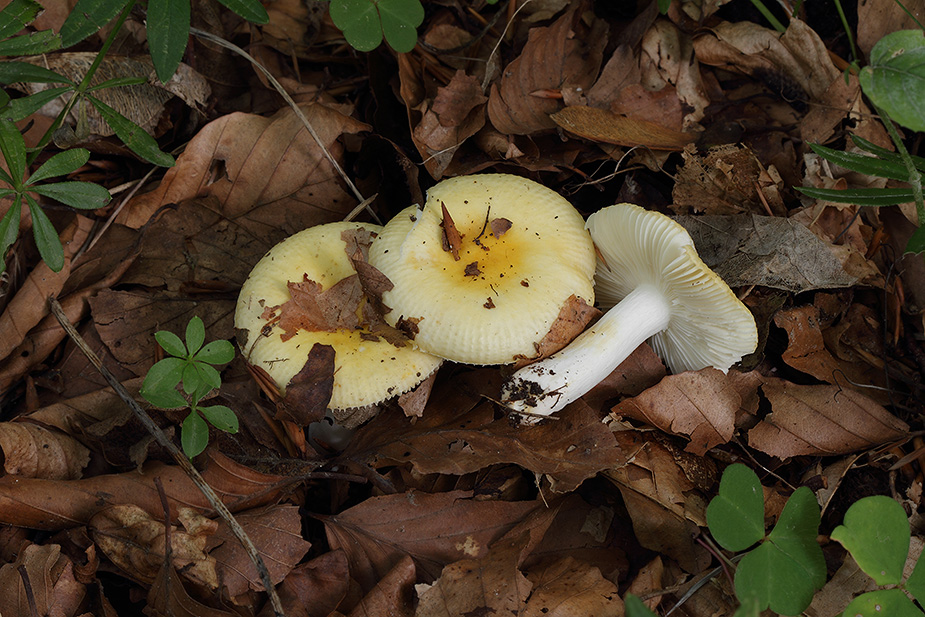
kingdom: Fungi
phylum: Basidiomycota
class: Agaricomycetes
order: Russulales
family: Russulaceae
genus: Russula
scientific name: Russula solaris
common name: sol-skørhat
